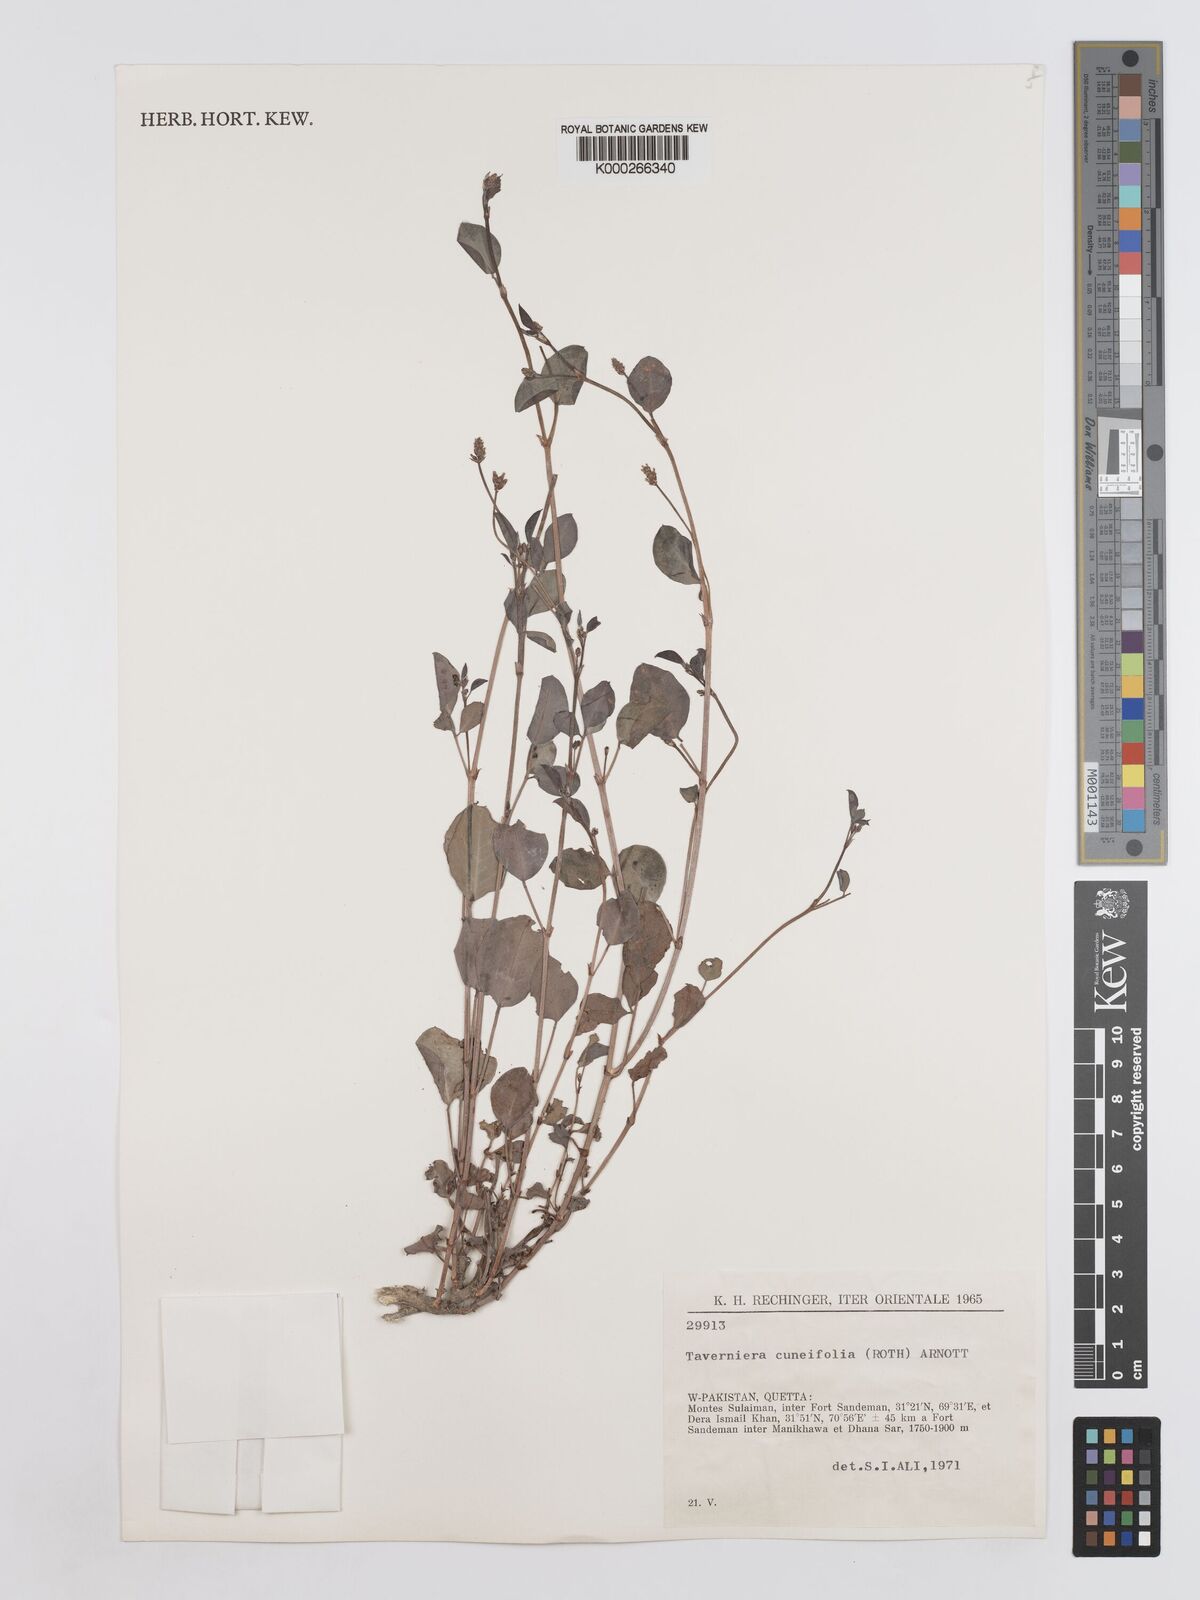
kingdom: Plantae
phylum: Tracheophyta
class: Magnoliopsida
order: Fabales
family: Fabaceae
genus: Taverniera
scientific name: Taverniera cuneifolia
